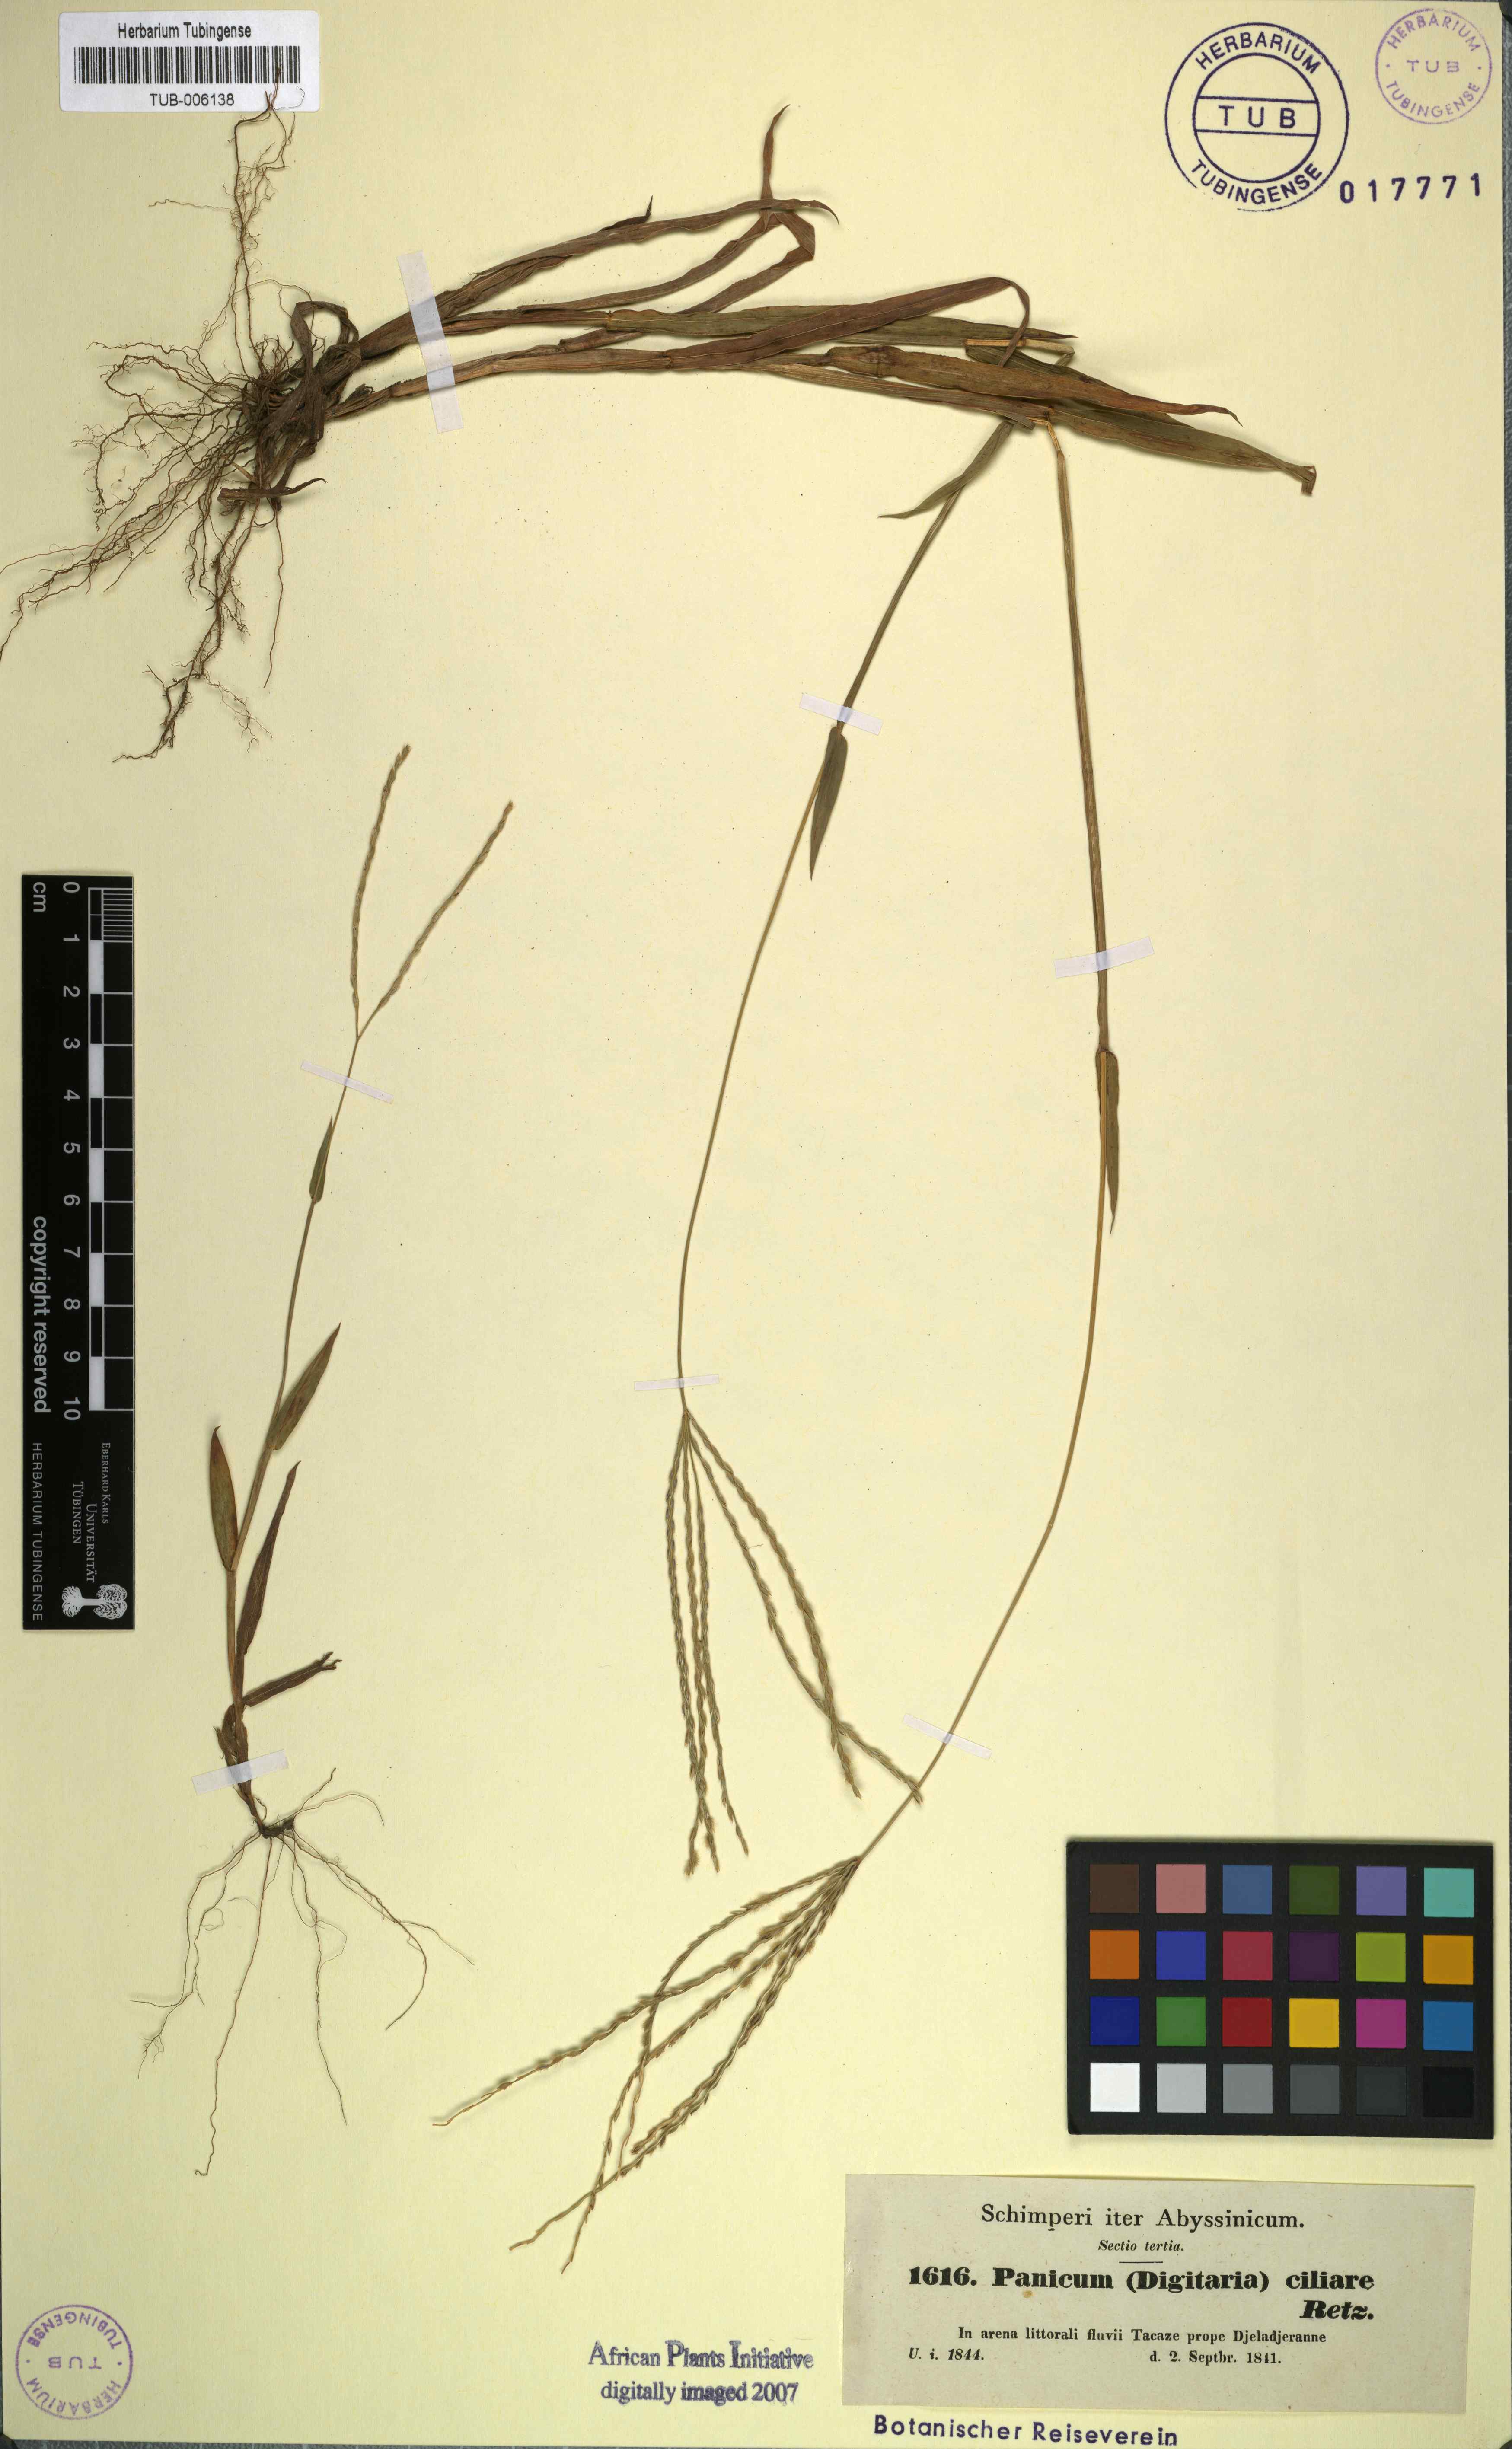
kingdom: Plantae
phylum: Tracheophyta
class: Liliopsida
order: Poales
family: Poaceae
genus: Digitaria
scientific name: Digitaria ciliaris
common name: Tropical finger-grass
